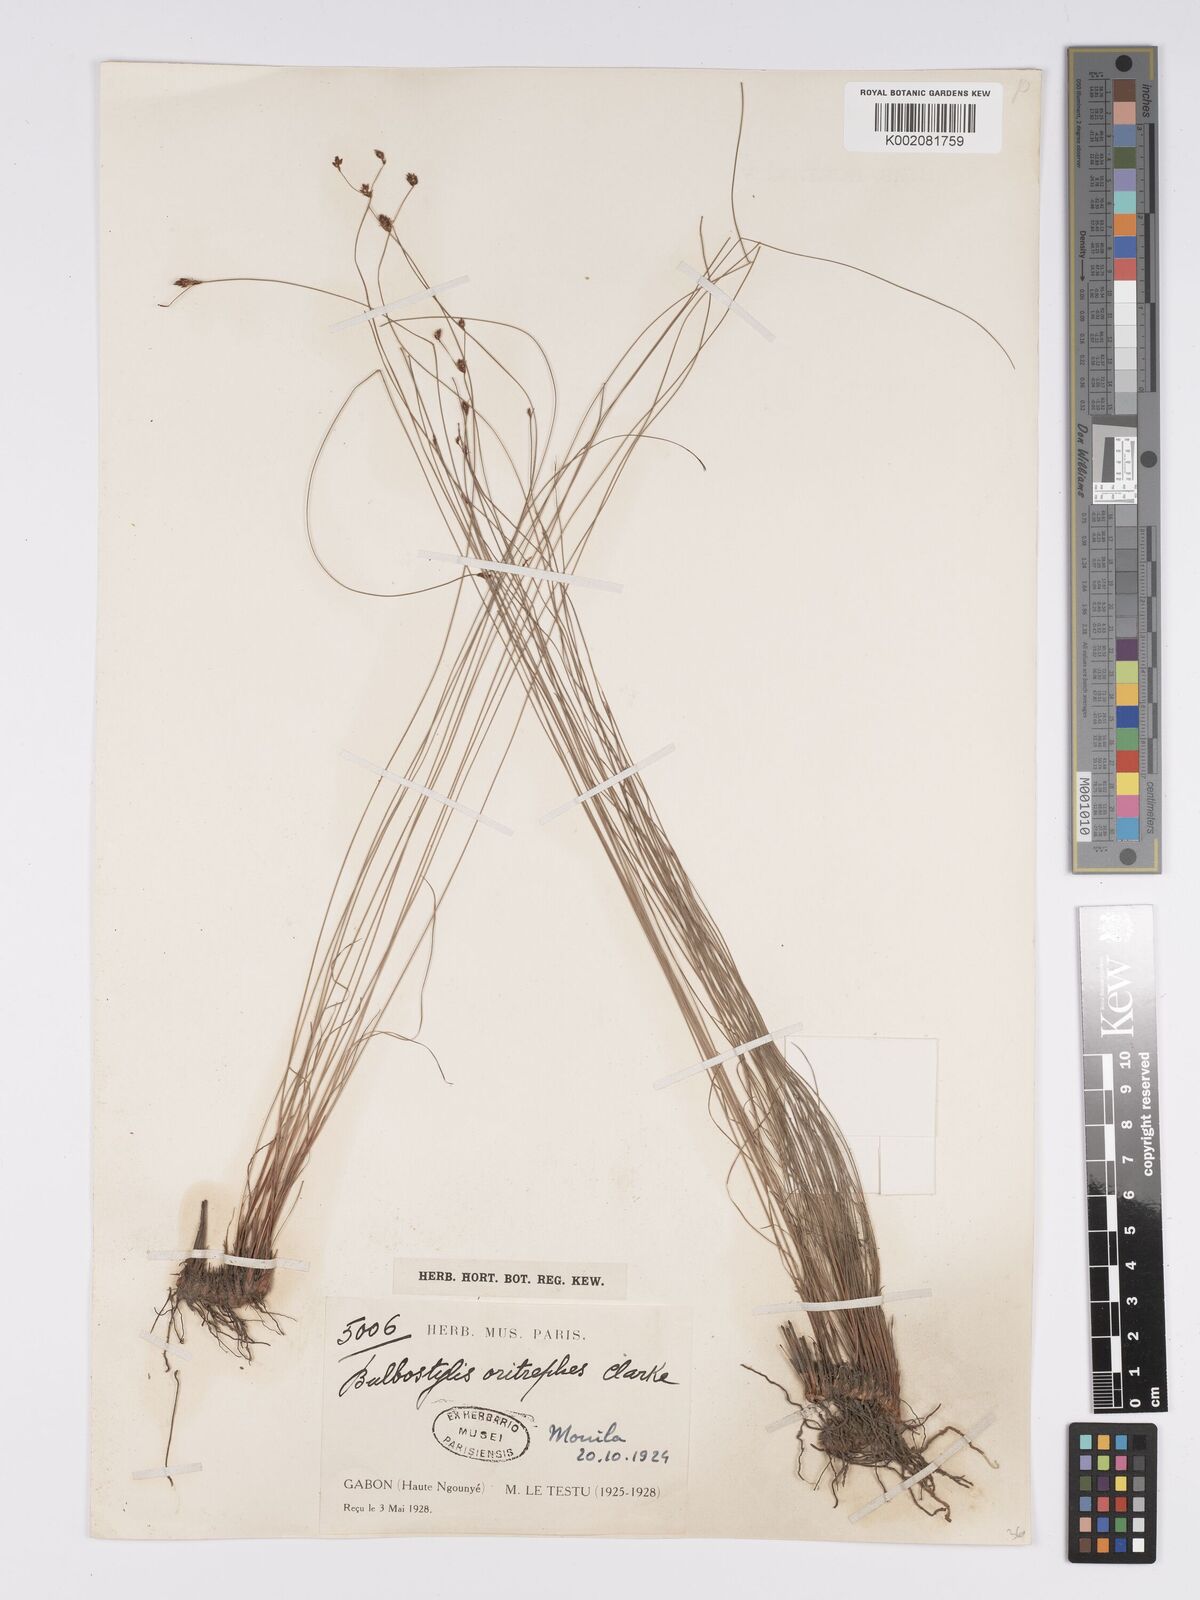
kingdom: Plantae
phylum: Tracheophyta
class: Liliopsida
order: Poales
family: Cyperaceae
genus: Bulbostylis
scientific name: Bulbostylis oritrephes
